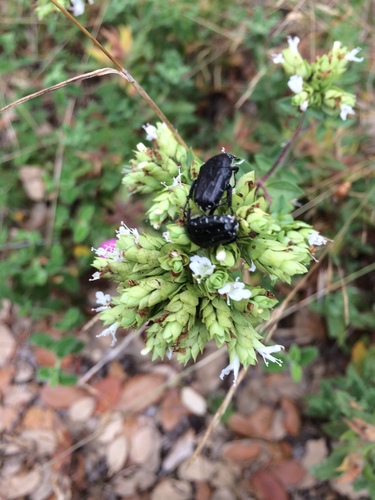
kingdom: Animalia
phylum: Arthropoda
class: Insecta
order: Coleoptera
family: Scarabaeidae
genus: Oxythyrea
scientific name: Oxythyrea funesta
